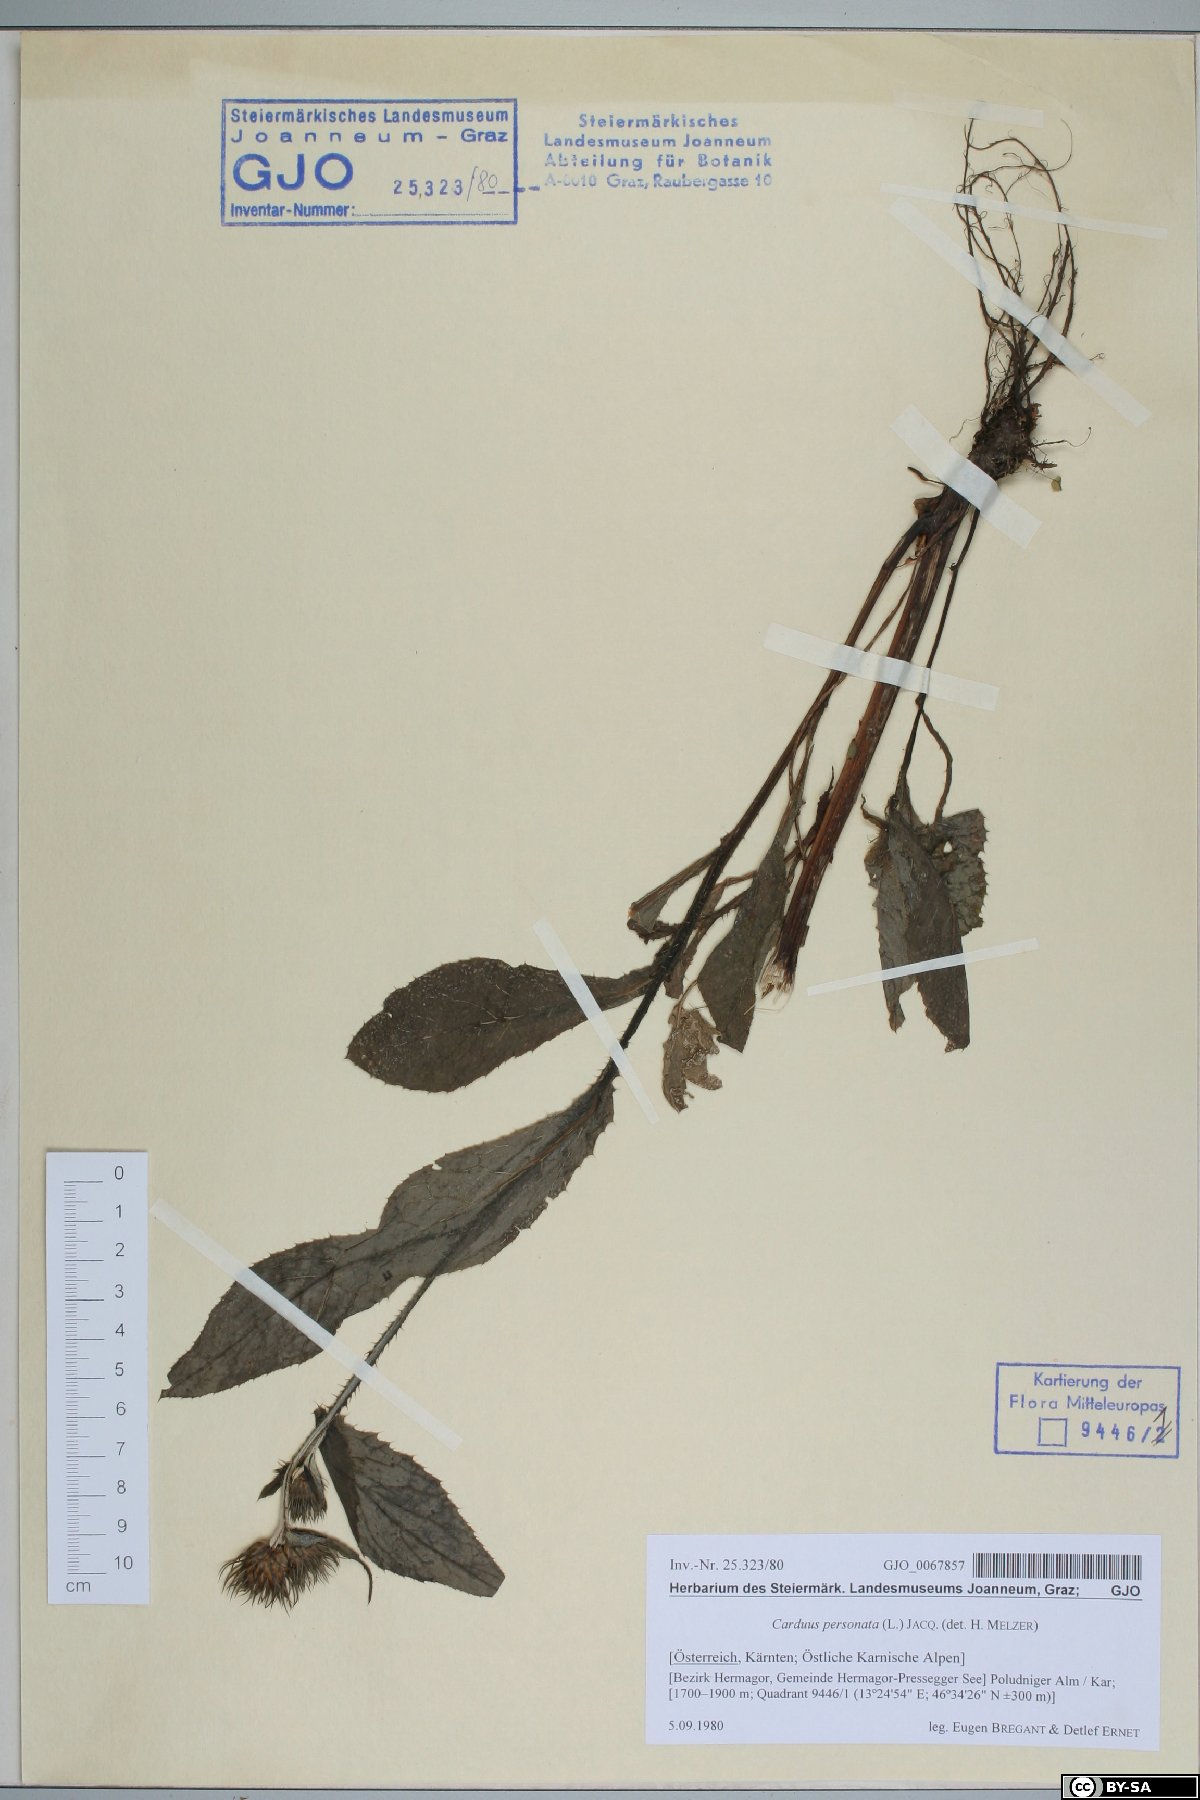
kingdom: Plantae
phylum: Tracheophyta
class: Magnoliopsida
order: Asterales
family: Asteraceae
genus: Carduus
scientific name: Carduus personata
